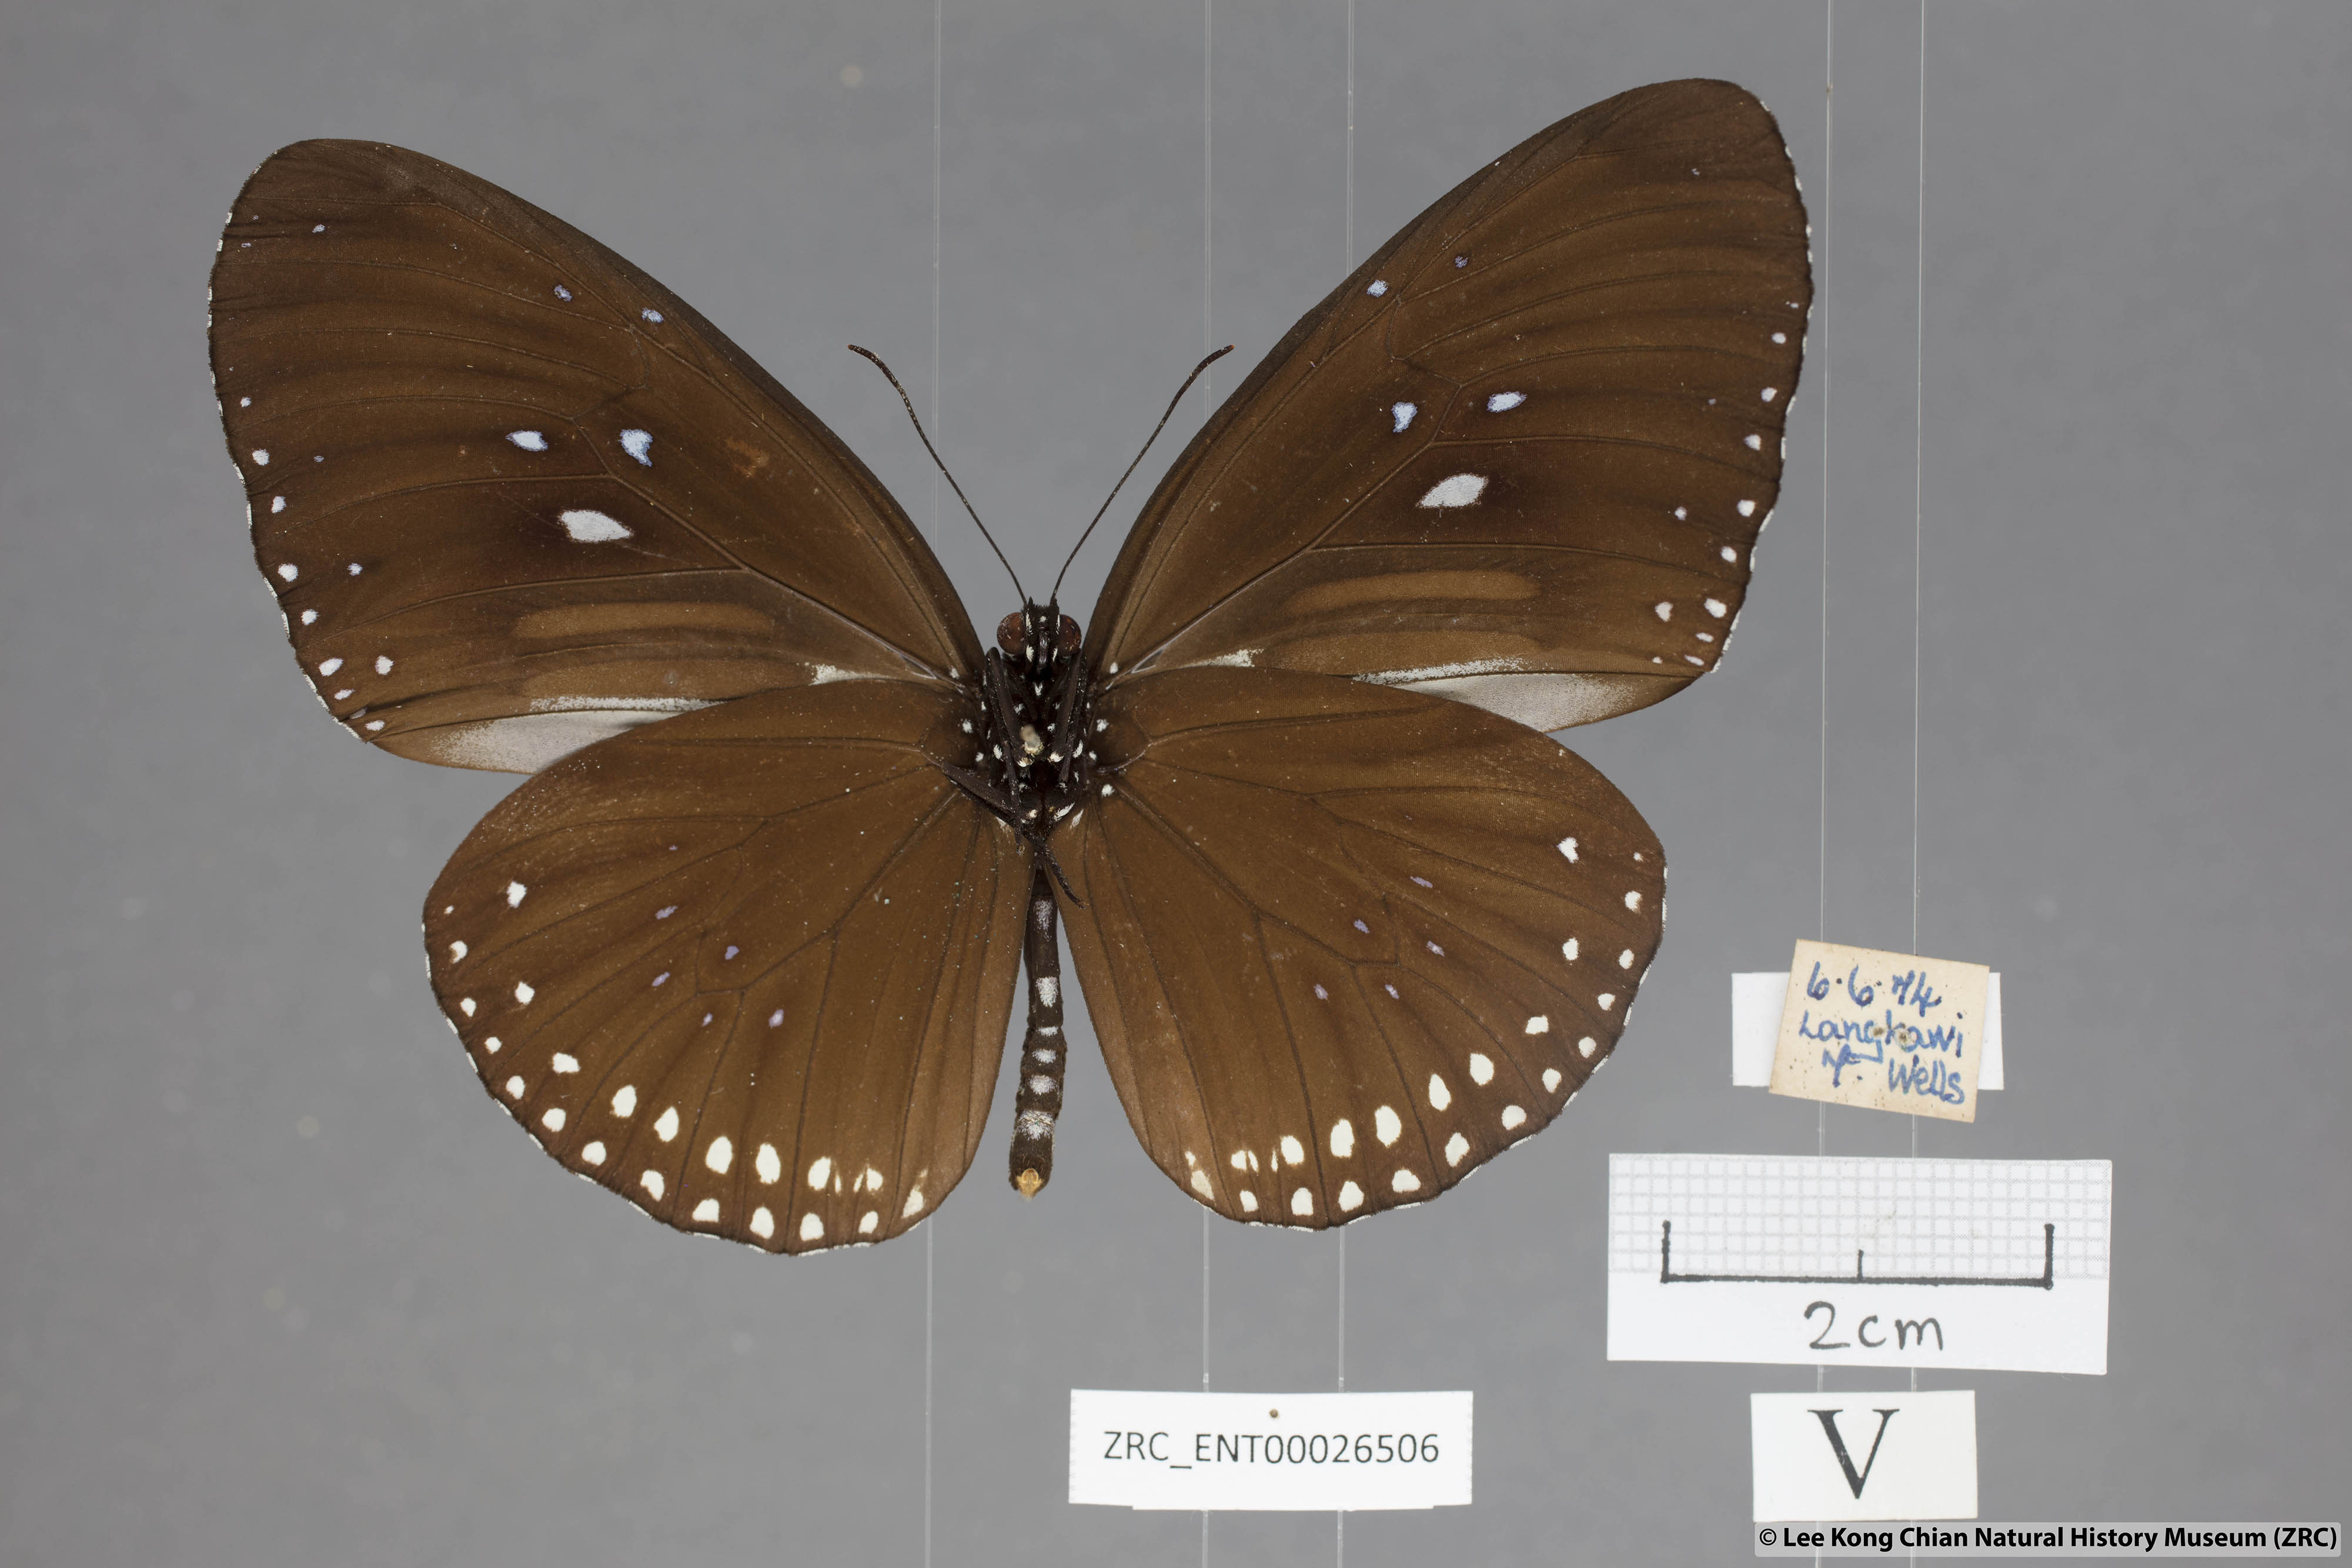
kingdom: Animalia
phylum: Arthropoda
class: Insecta
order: Lepidoptera
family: Nymphalidae
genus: Euploea
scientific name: Euploea sylvester
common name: Double-branded crow butterfly
